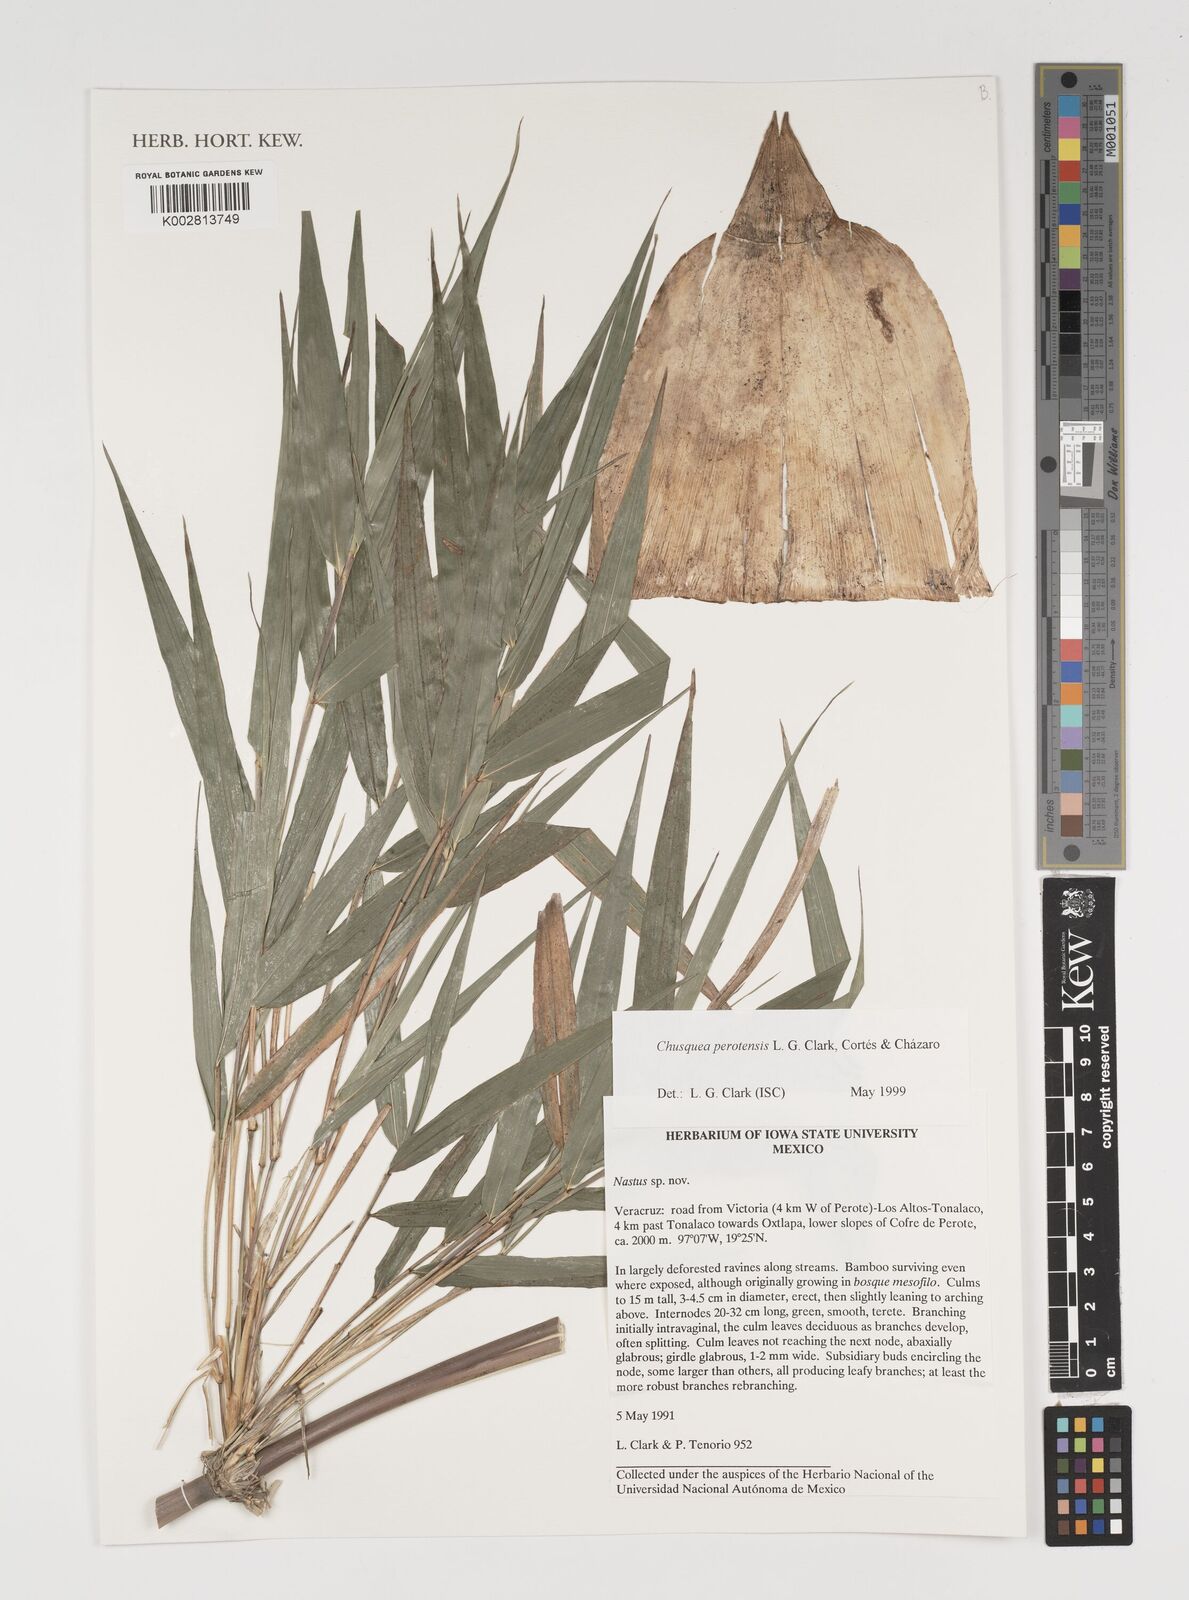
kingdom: Plantae
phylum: Tracheophyta
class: Liliopsida
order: Poales
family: Poaceae
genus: Chusquea
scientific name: Chusquea perotensis
